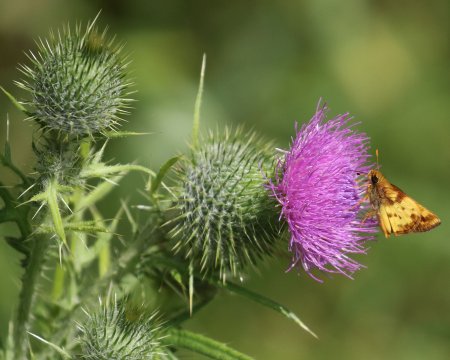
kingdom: Animalia
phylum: Arthropoda
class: Insecta
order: Lepidoptera
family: Hesperiidae
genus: Lon
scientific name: Lon zabulon
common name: Zabulon Skipper
